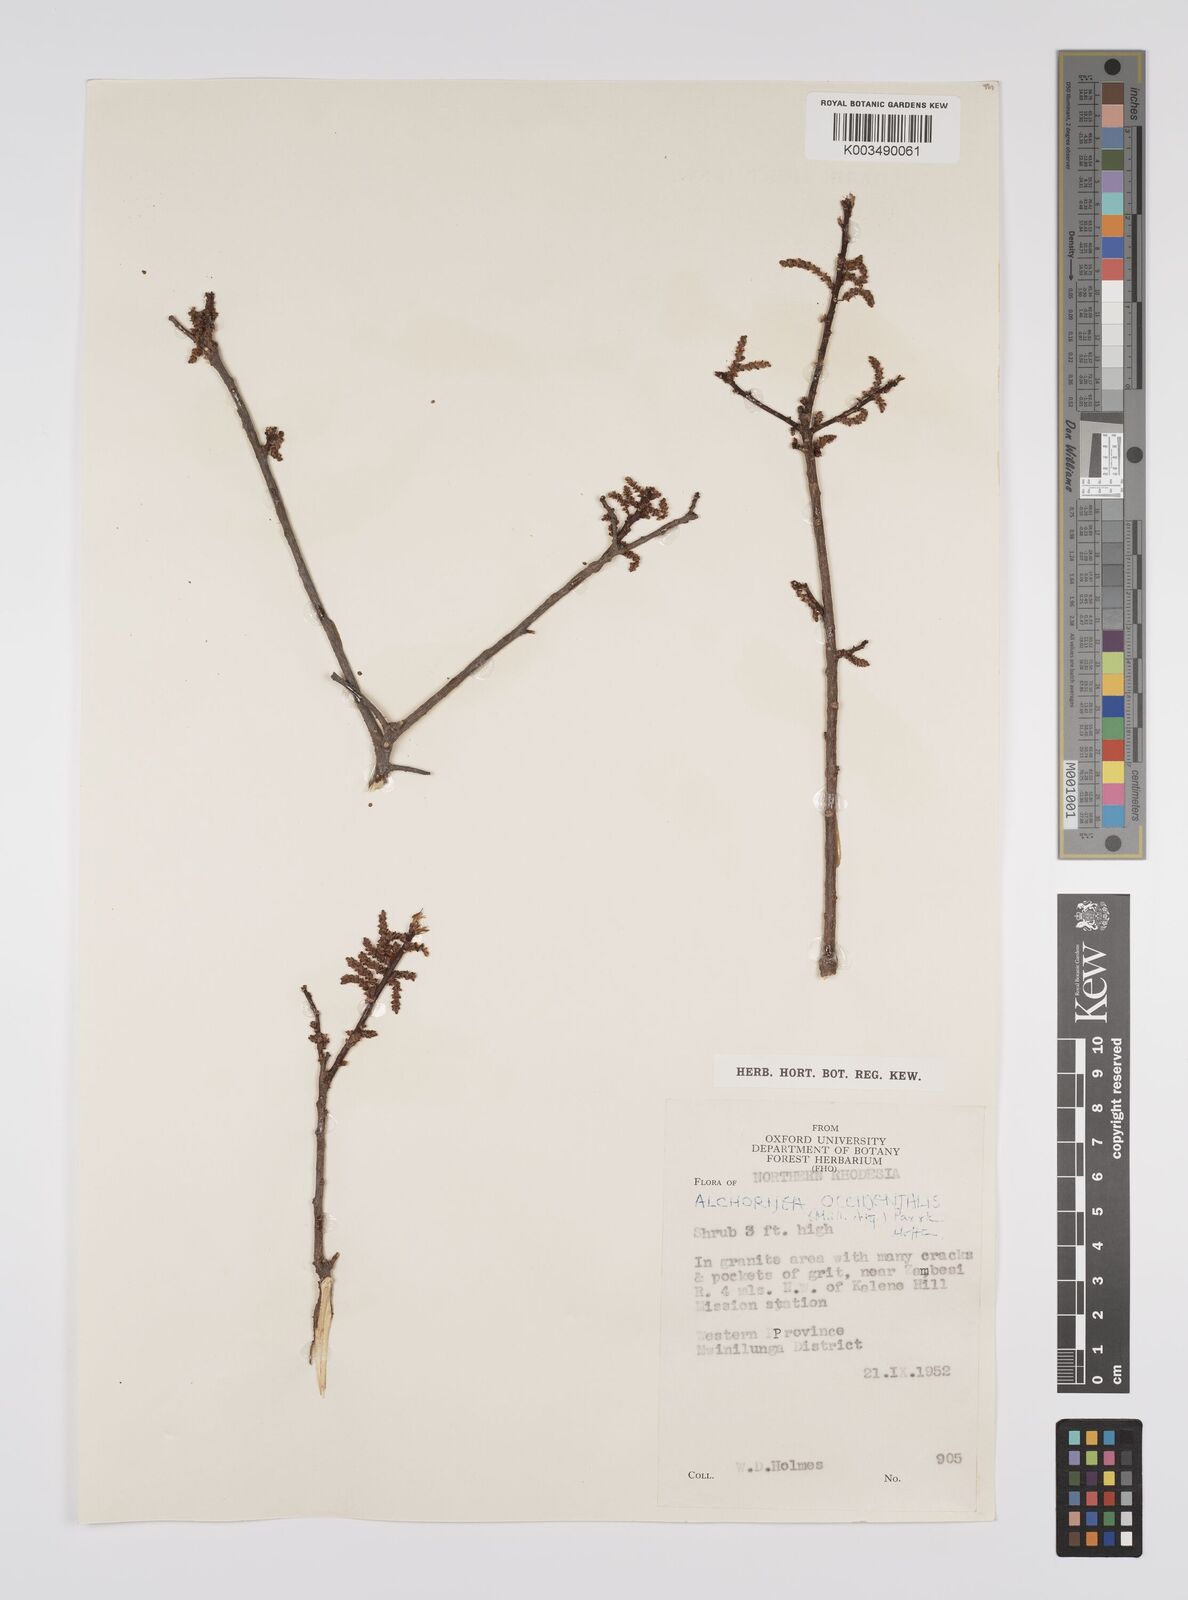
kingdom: Plantae
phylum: Tracheophyta
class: Magnoliopsida
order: Malpighiales
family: Euphorbiaceae
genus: Alchornea
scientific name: Alchornea occidentalis
